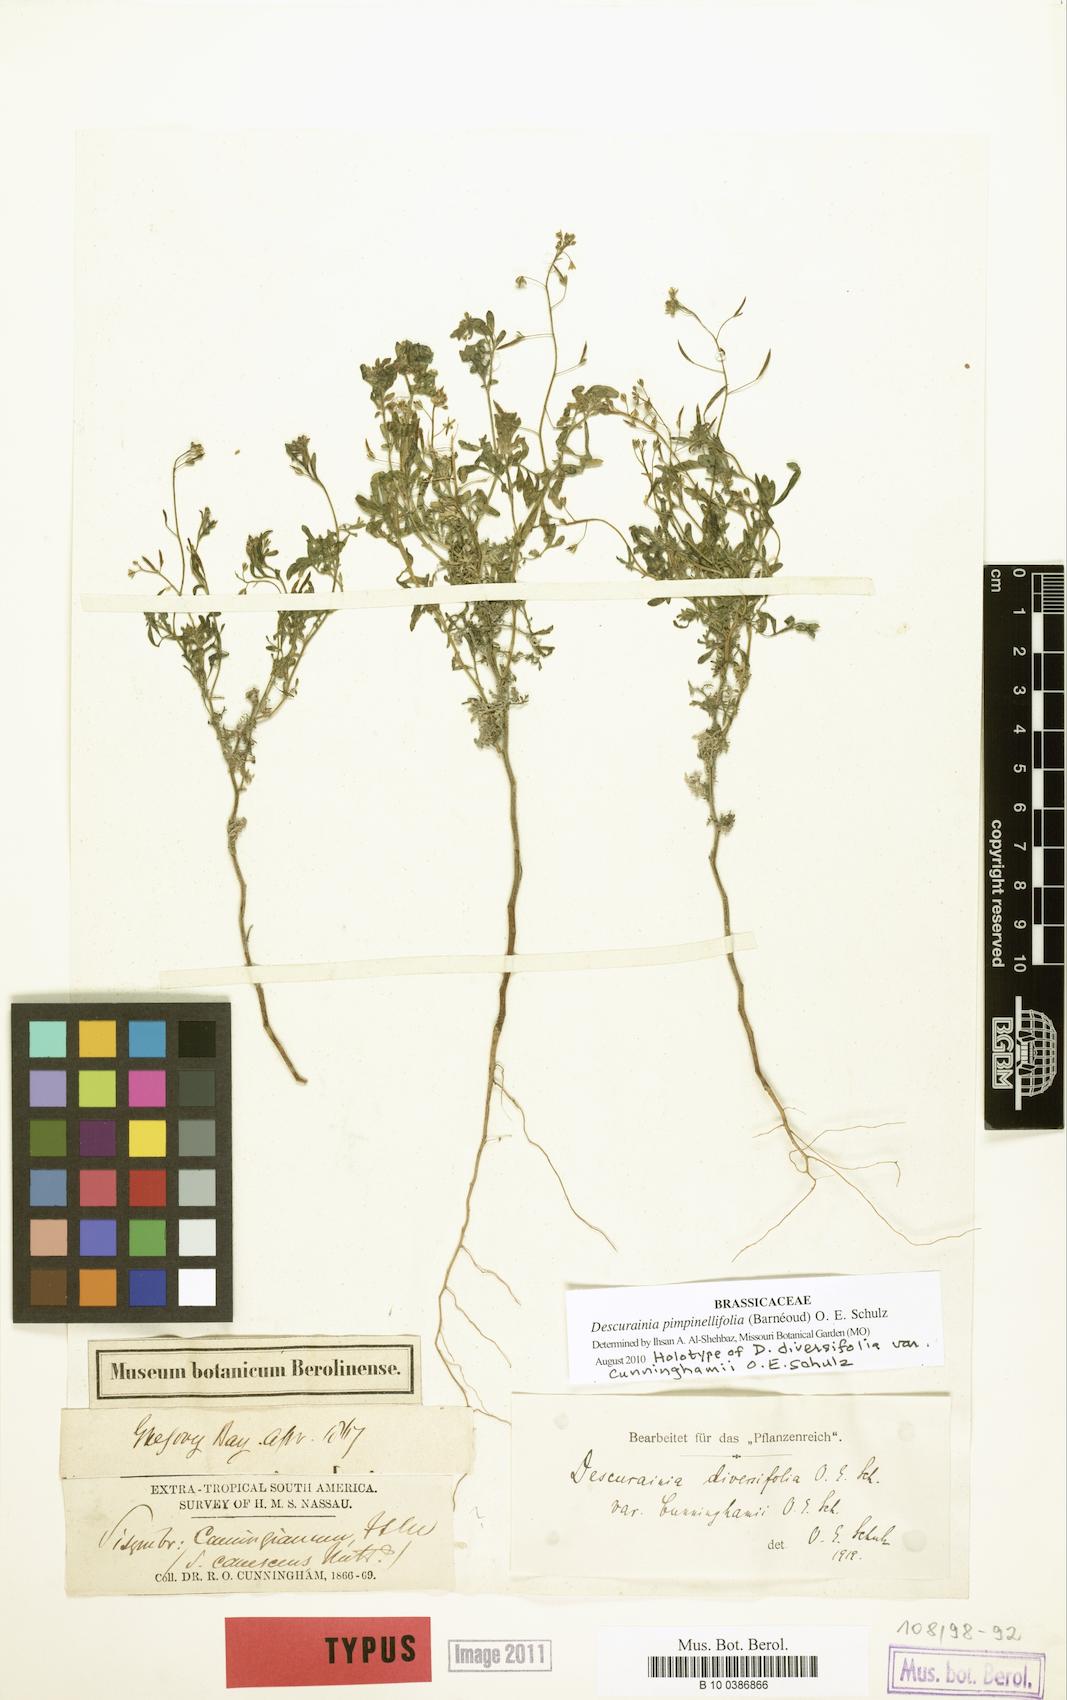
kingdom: Plantae
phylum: Tracheophyta
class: Magnoliopsida
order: Brassicales
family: Brassicaceae
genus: Descurainia
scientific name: Descurainia pimpinellifolia
